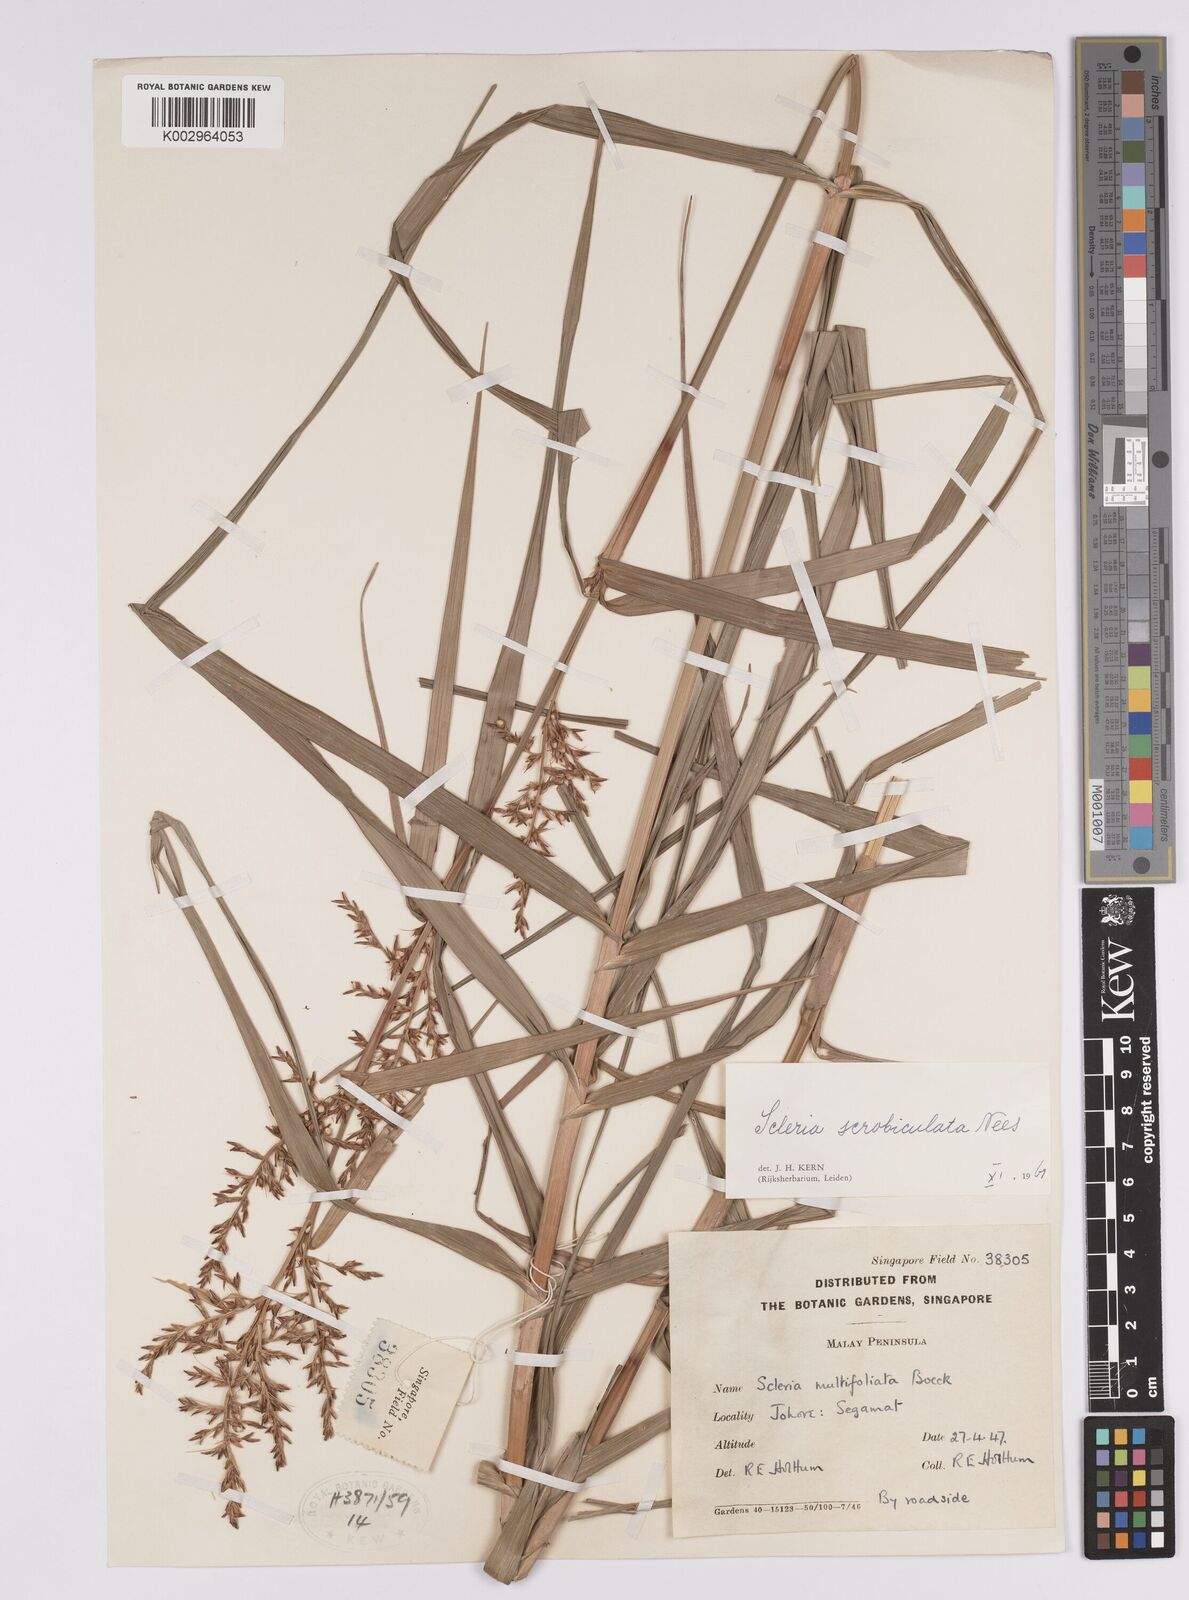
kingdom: Plantae
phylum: Tracheophyta
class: Liliopsida
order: Poales
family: Cyperaceae
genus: Scleria
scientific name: Scleria scrobiculata
